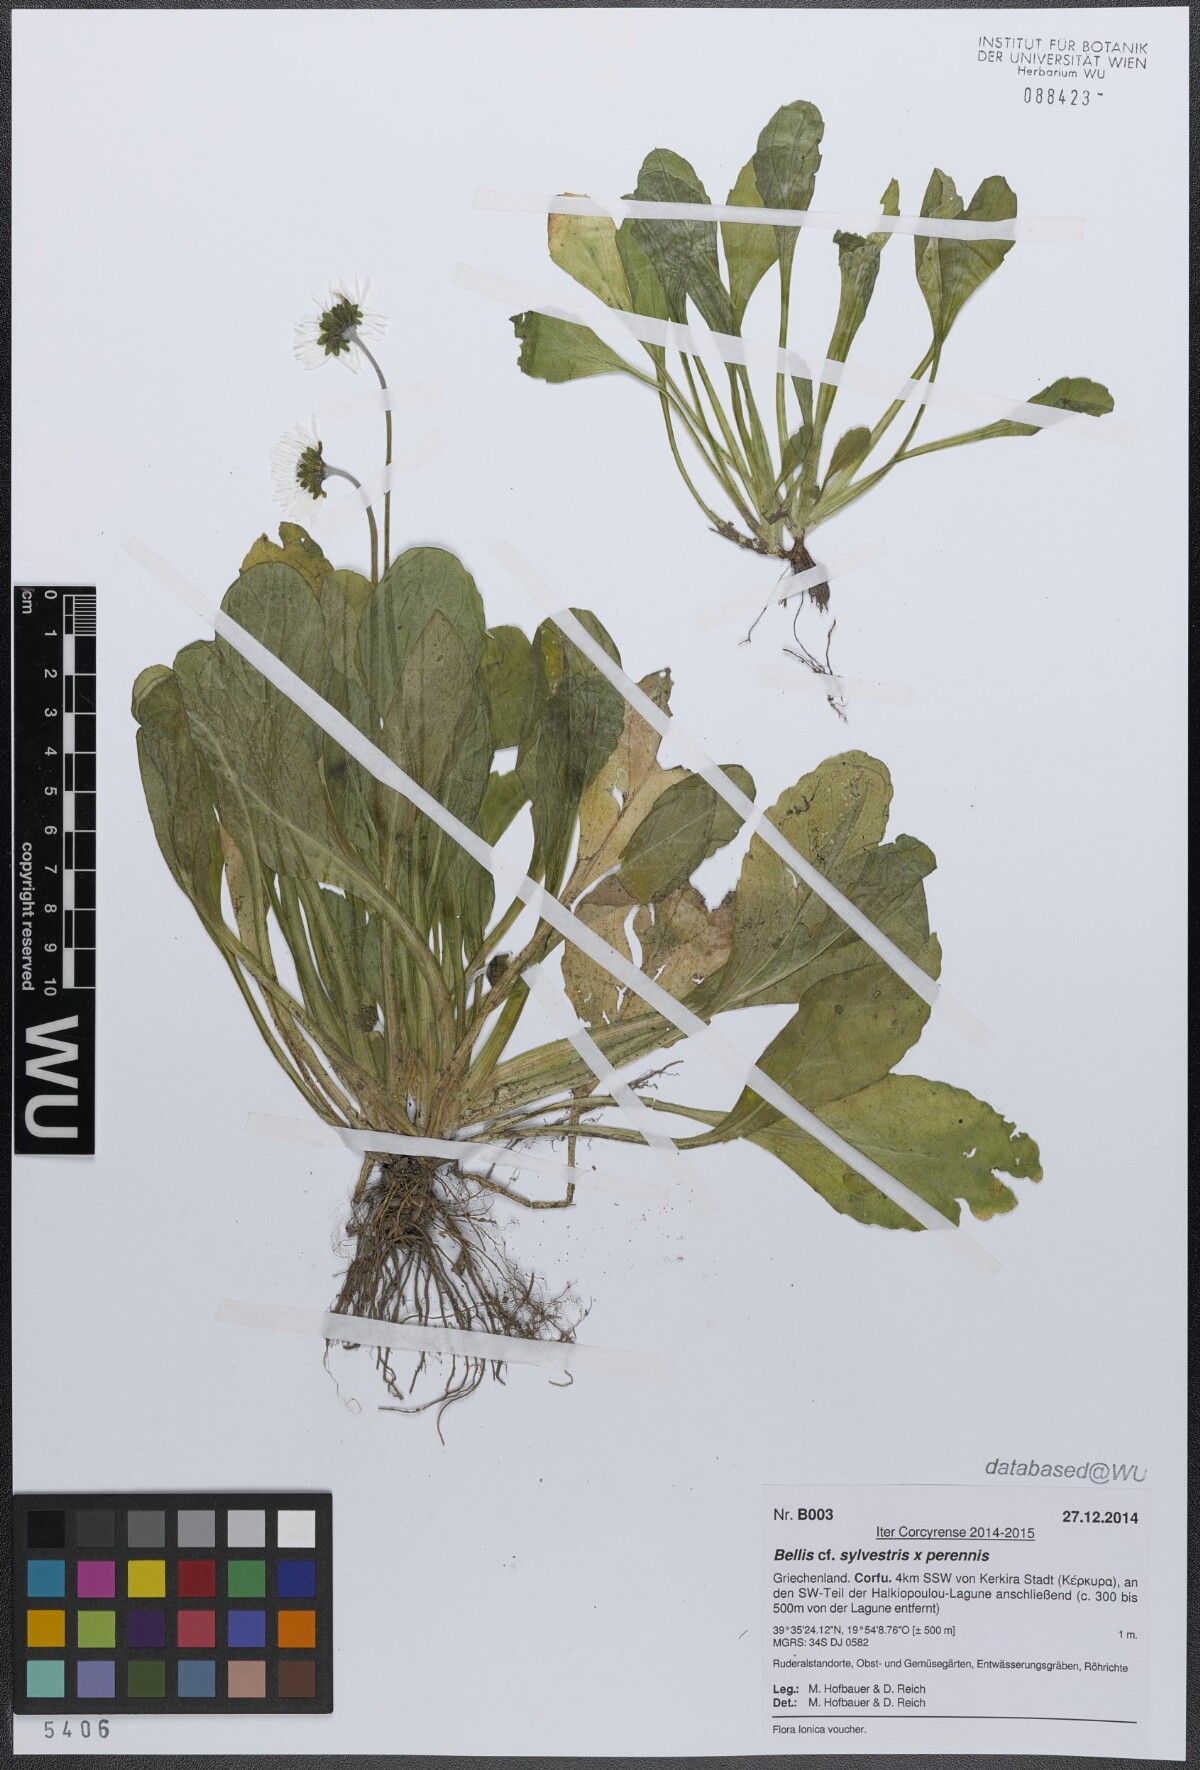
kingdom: Plantae
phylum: Tracheophyta
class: Magnoliopsida
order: Asterales
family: Asteraceae
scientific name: Asteraceae
